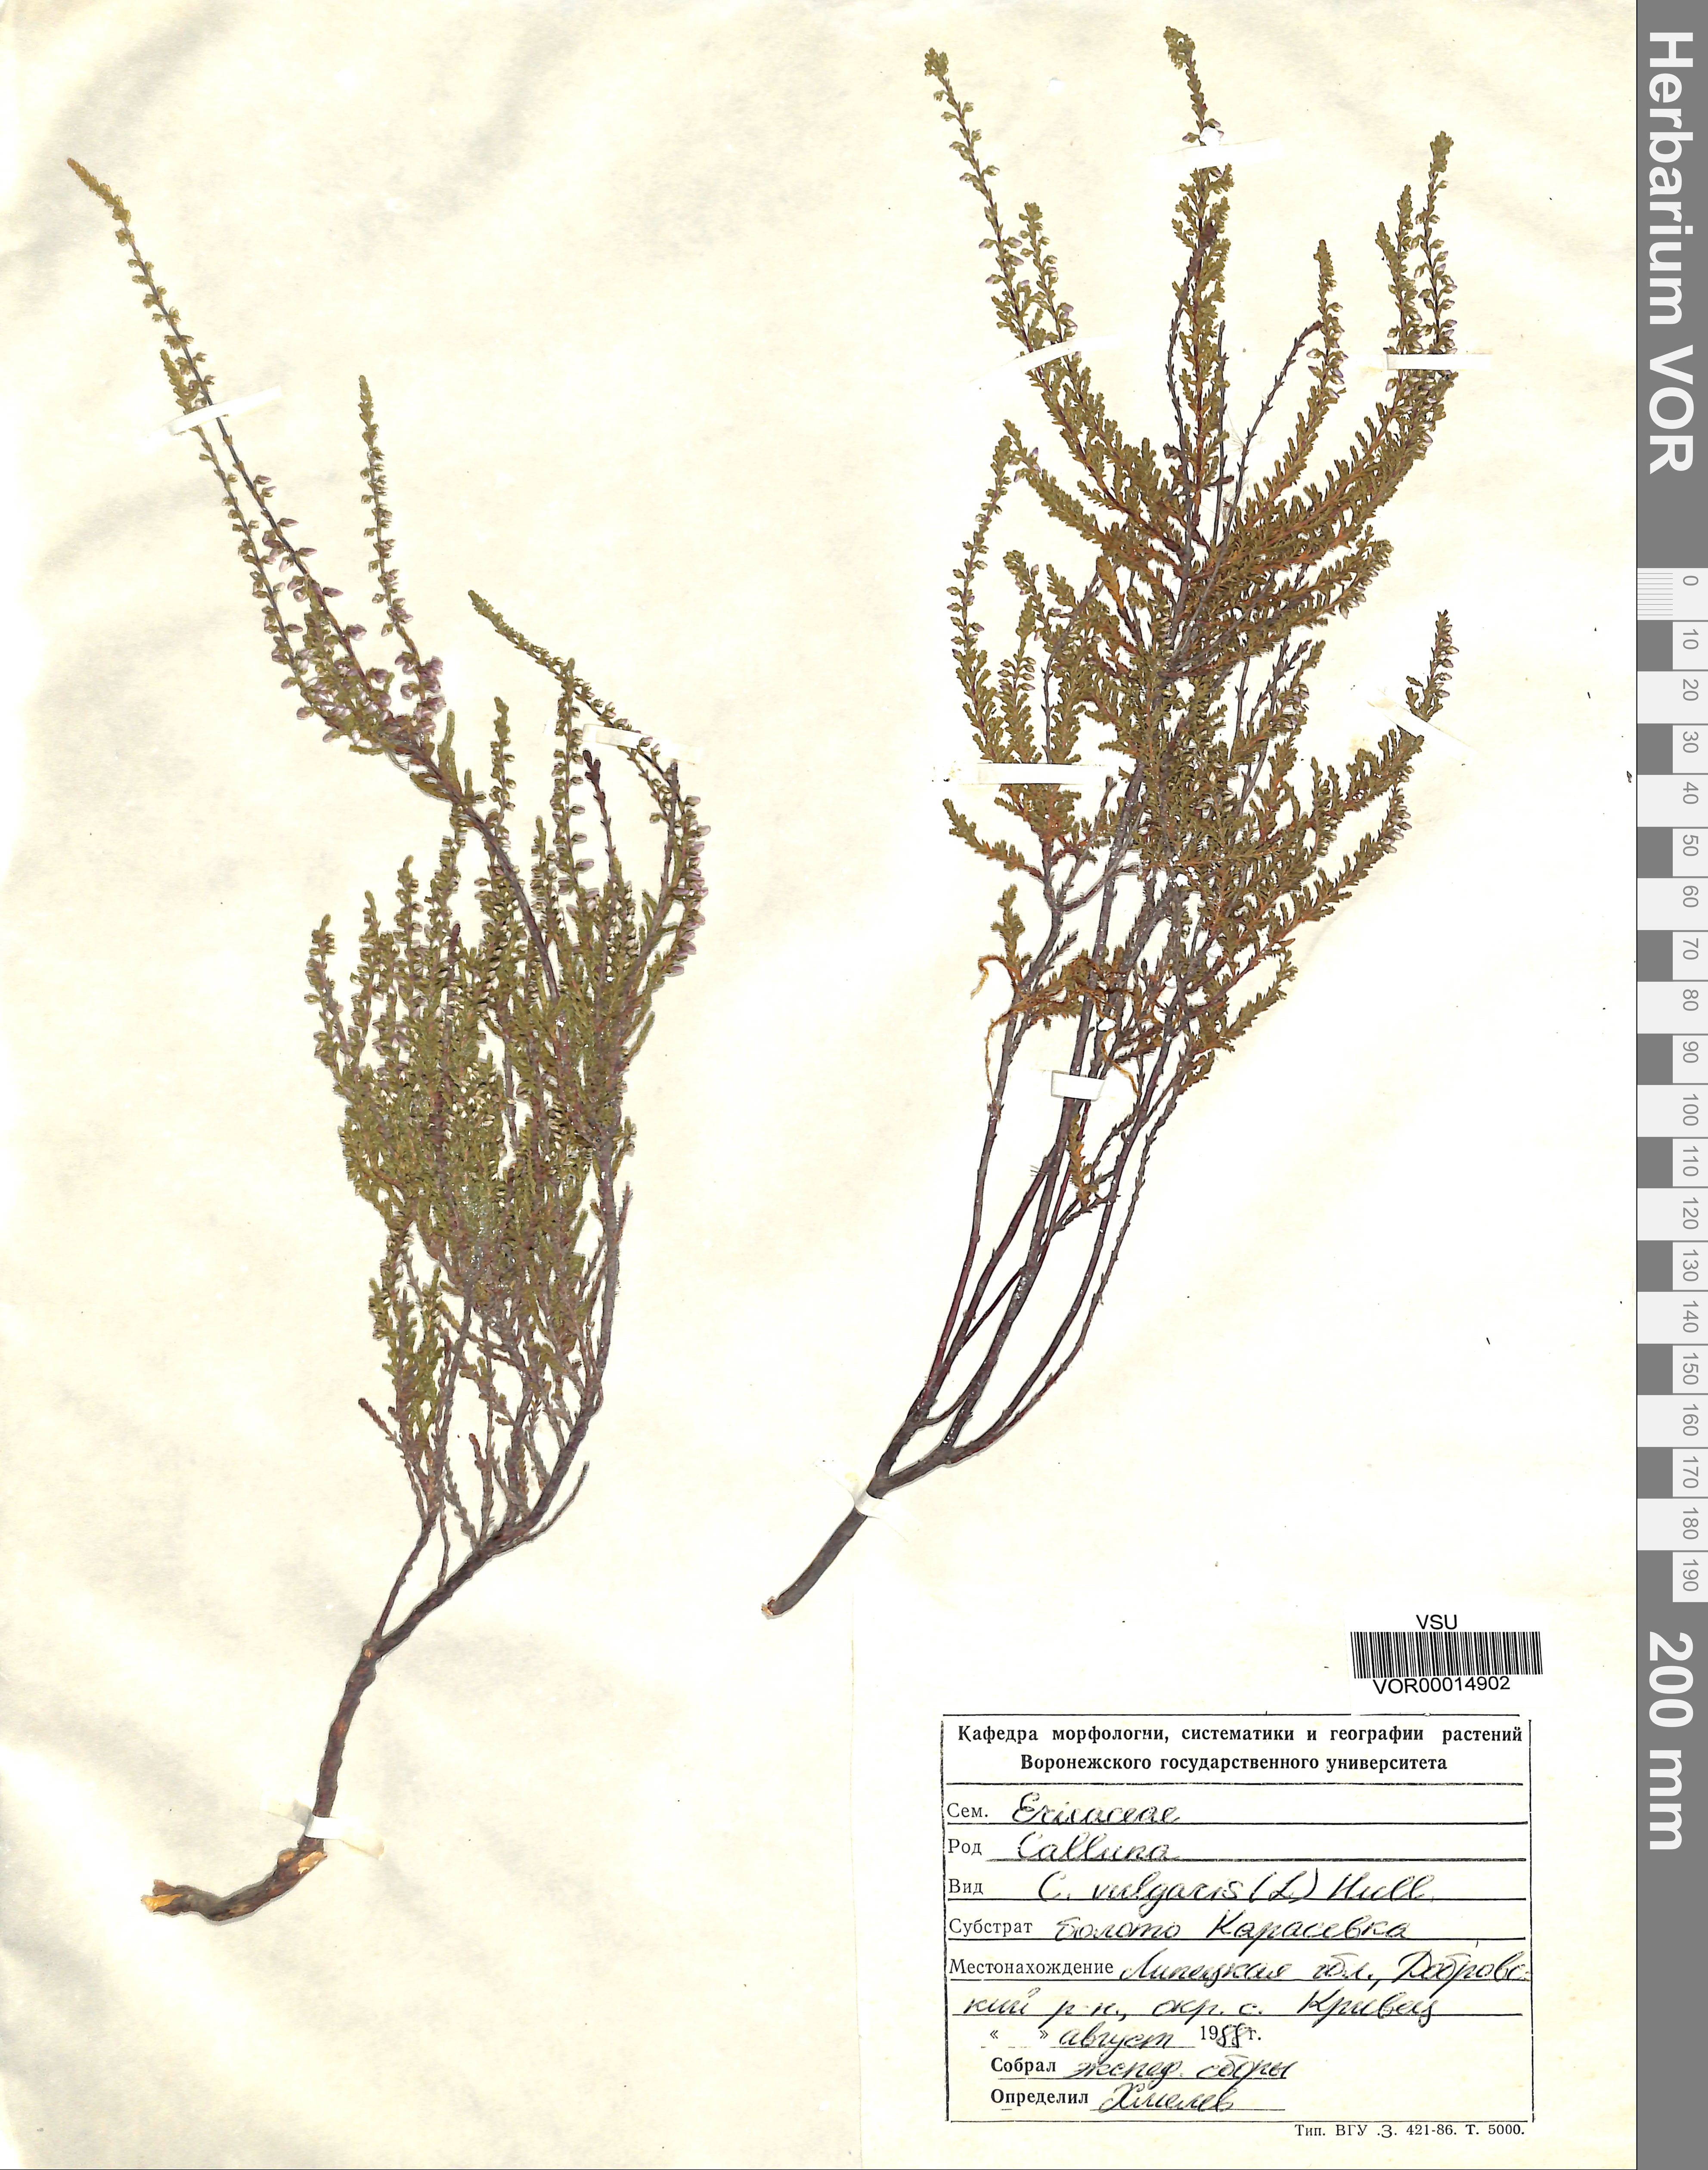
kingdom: Plantae
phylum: Tracheophyta
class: Magnoliopsida
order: Ericales
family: Ericaceae
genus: Calluna
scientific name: Calluna vulgaris
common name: Heather
